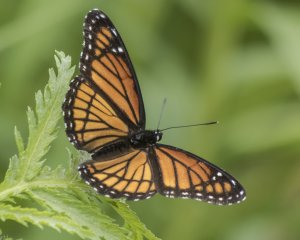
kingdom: Animalia
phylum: Arthropoda
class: Insecta
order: Lepidoptera
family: Nymphalidae
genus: Limenitis
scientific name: Limenitis archippus
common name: Viceroy
